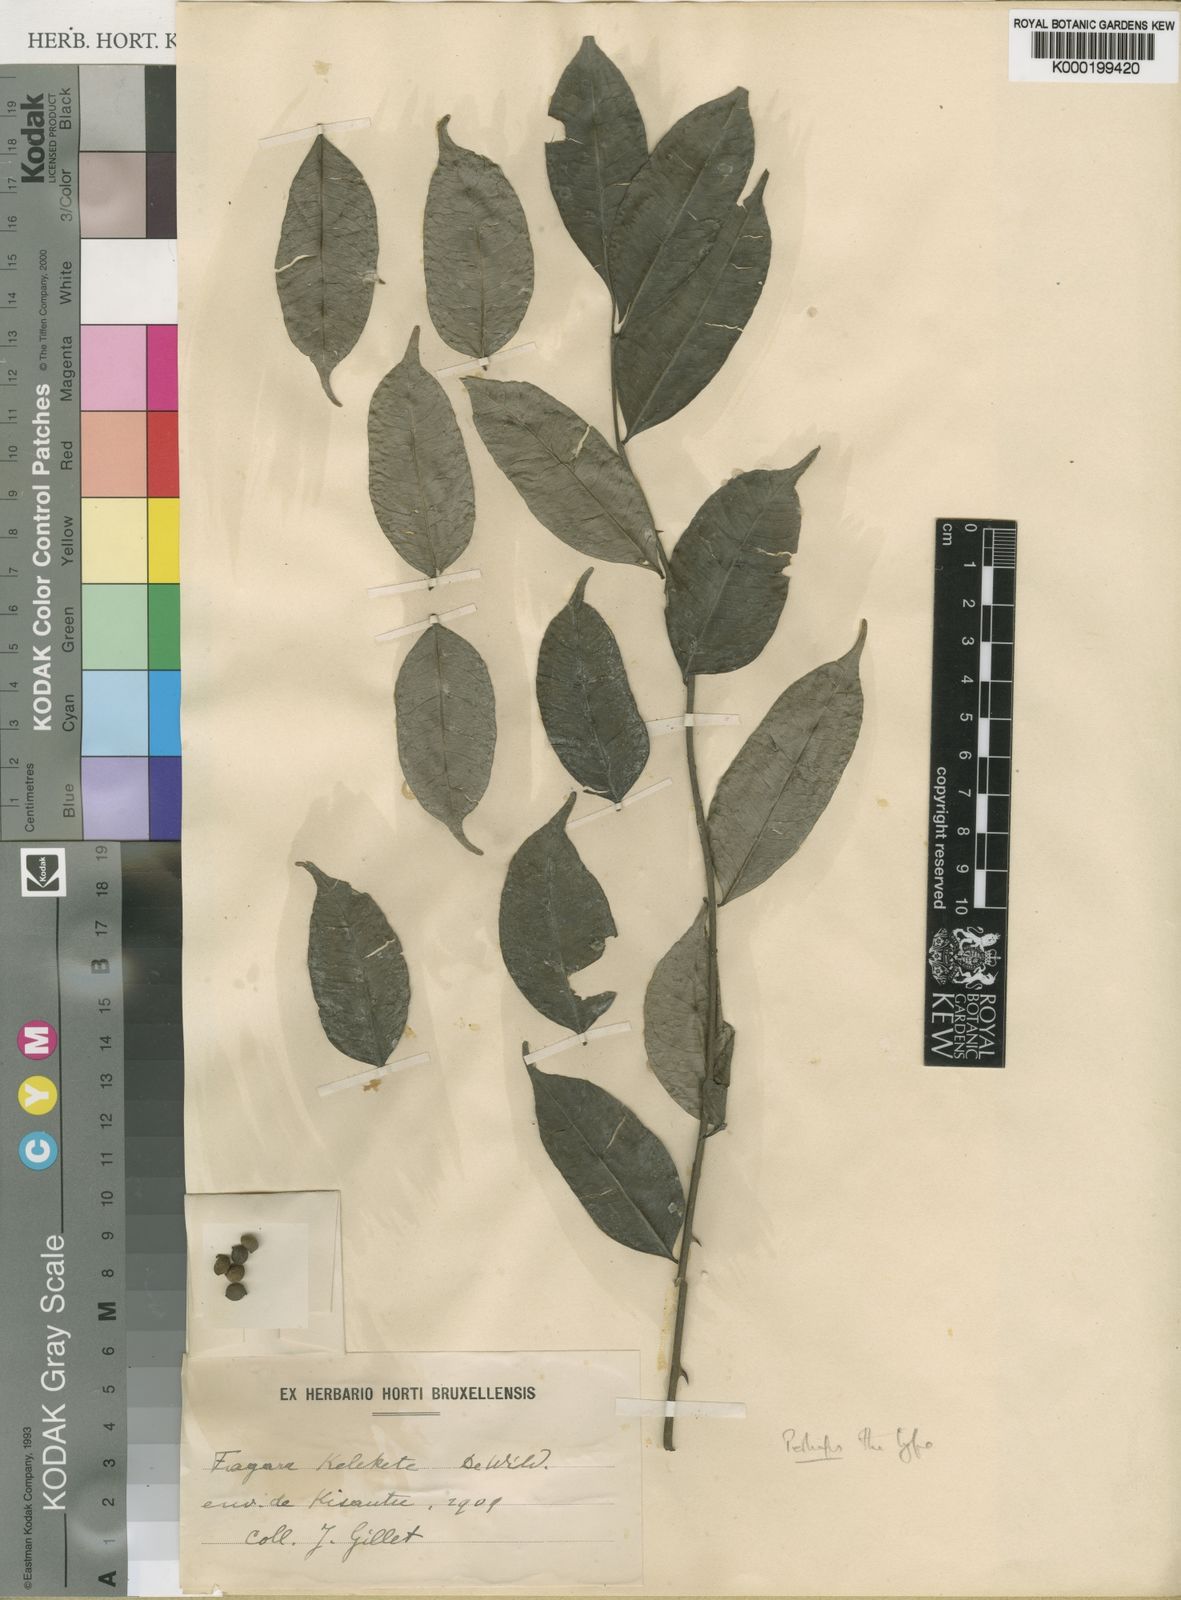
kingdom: Plantae
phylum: Tracheophyta
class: Magnoliopsida
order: Sapindales
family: Rutaceae
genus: Zanthoxylum
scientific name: Zanthoxylum leprieurii
